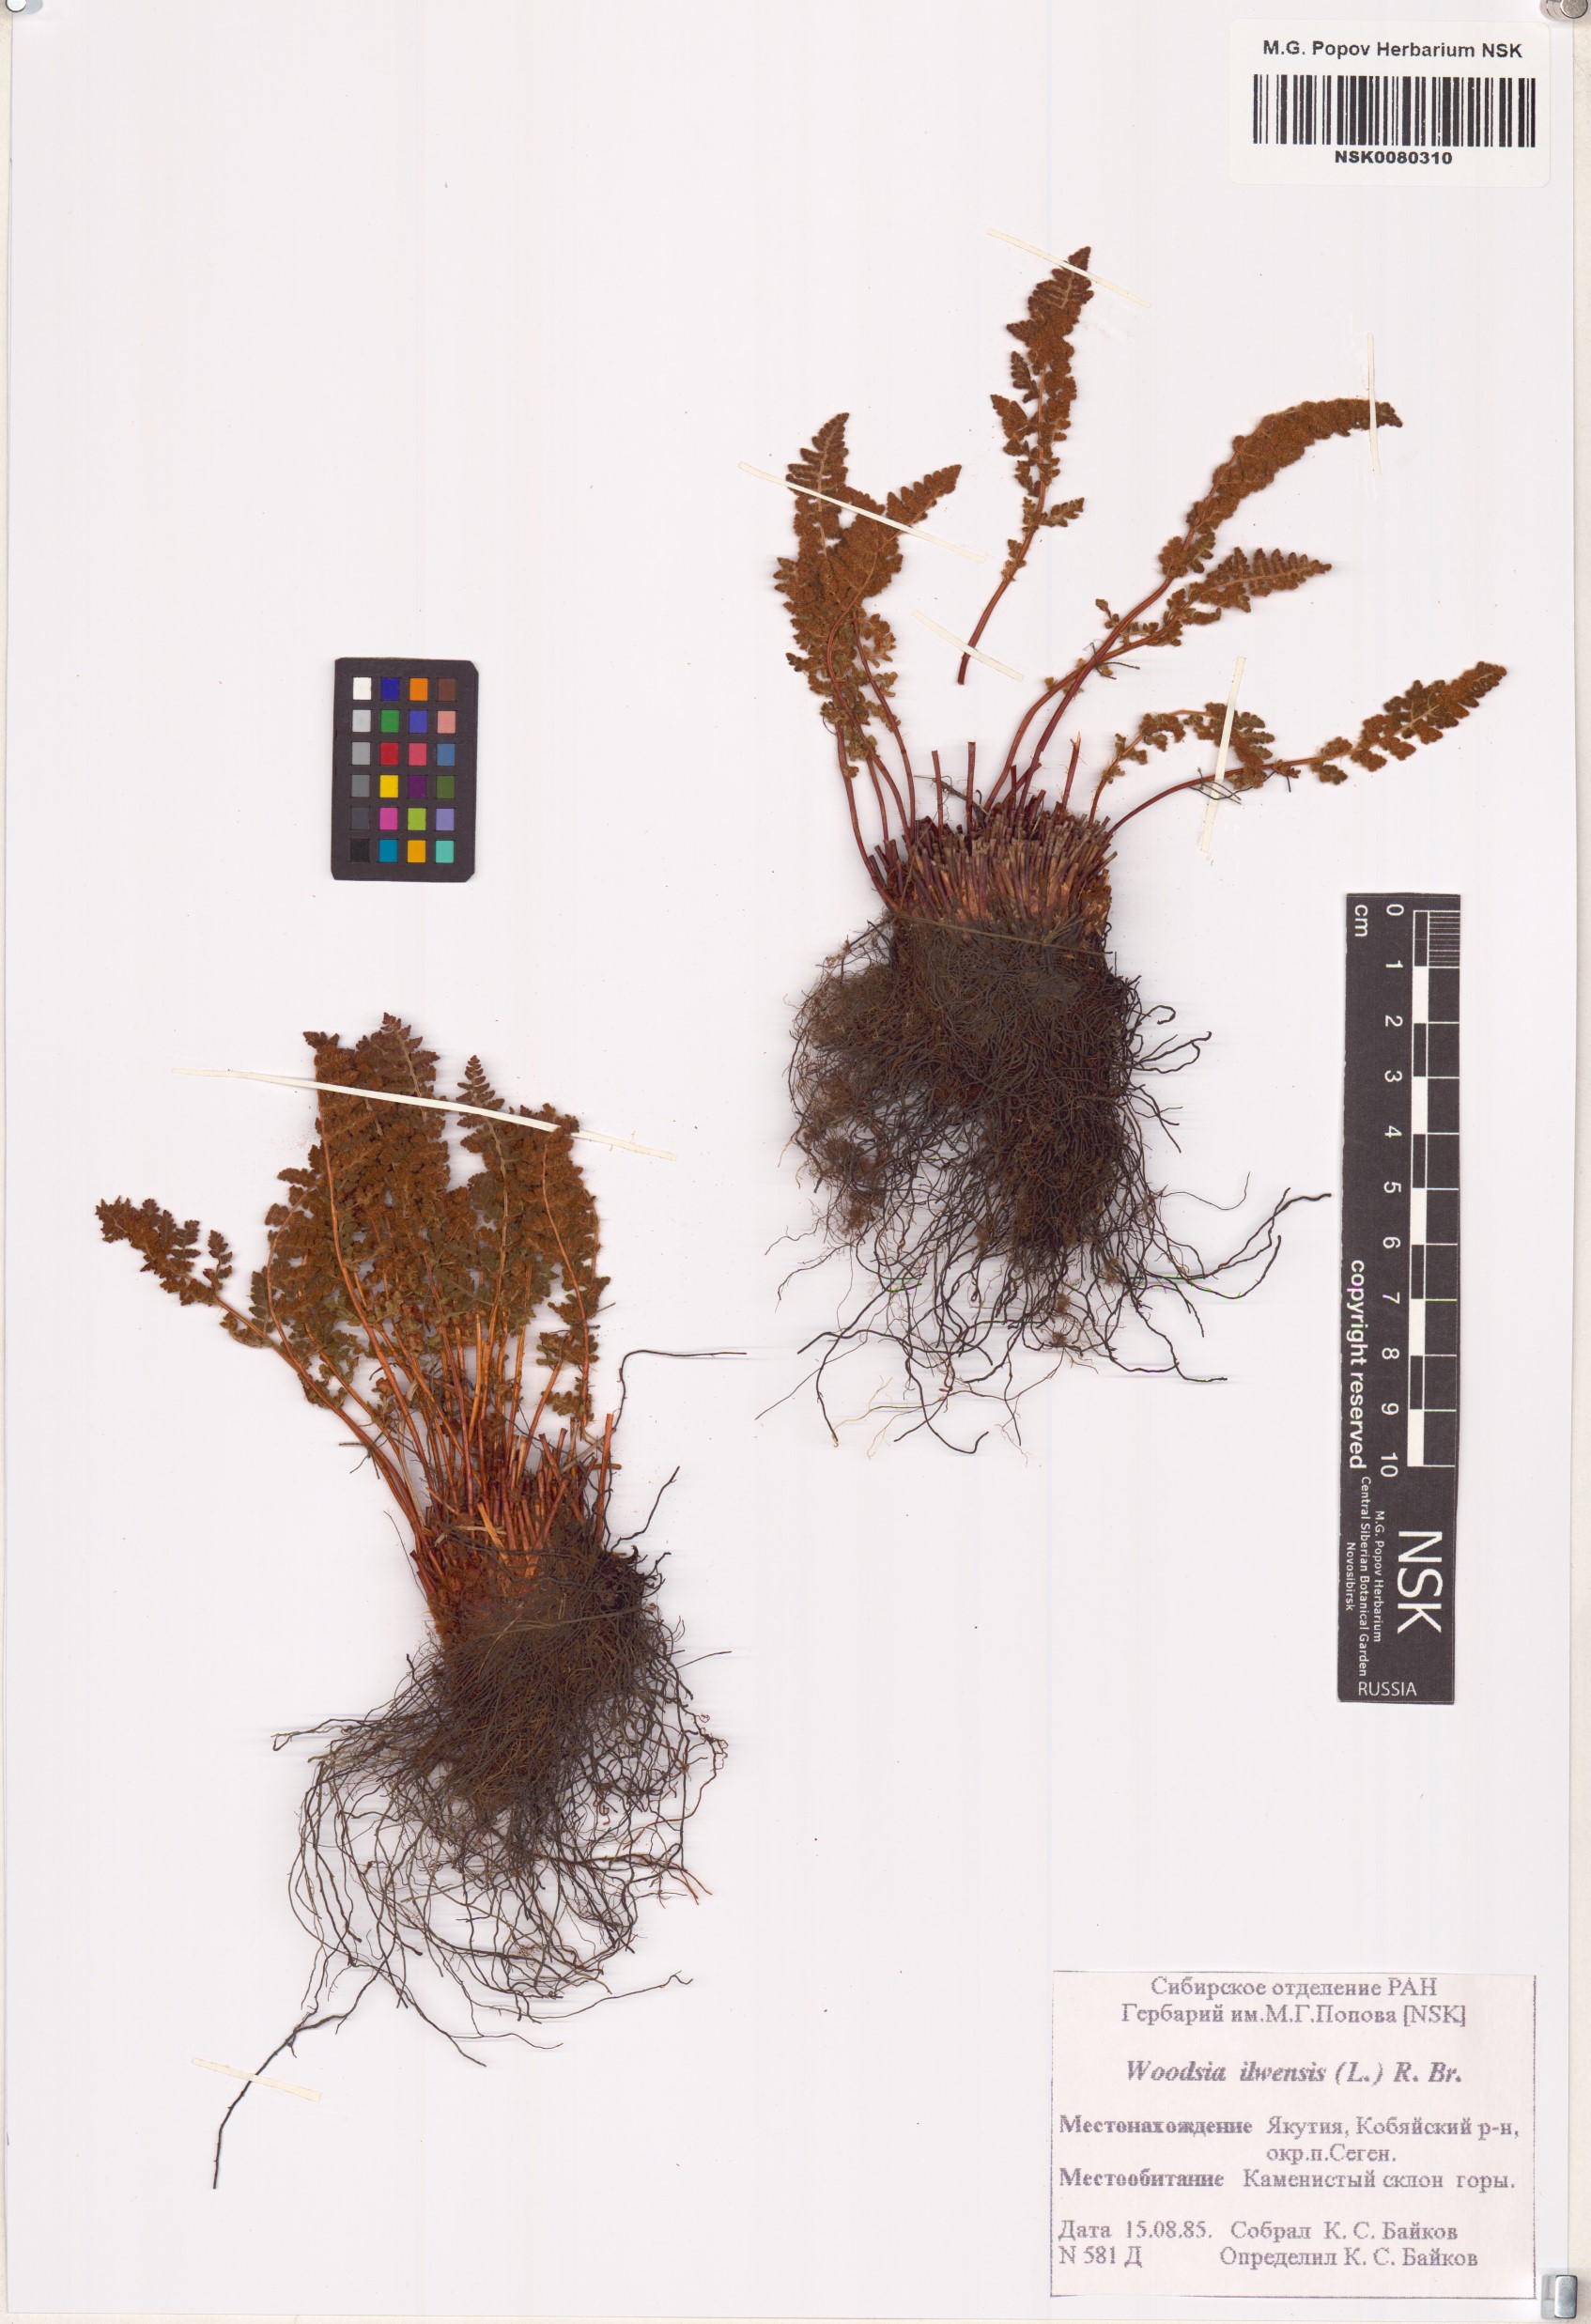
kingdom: Plantae
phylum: Tracheophyta
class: Polypodiopsida
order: Polypodiales
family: Woodsiaceae
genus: Woodsia
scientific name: Woodsia ilvensis
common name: Fragrant woodsia
